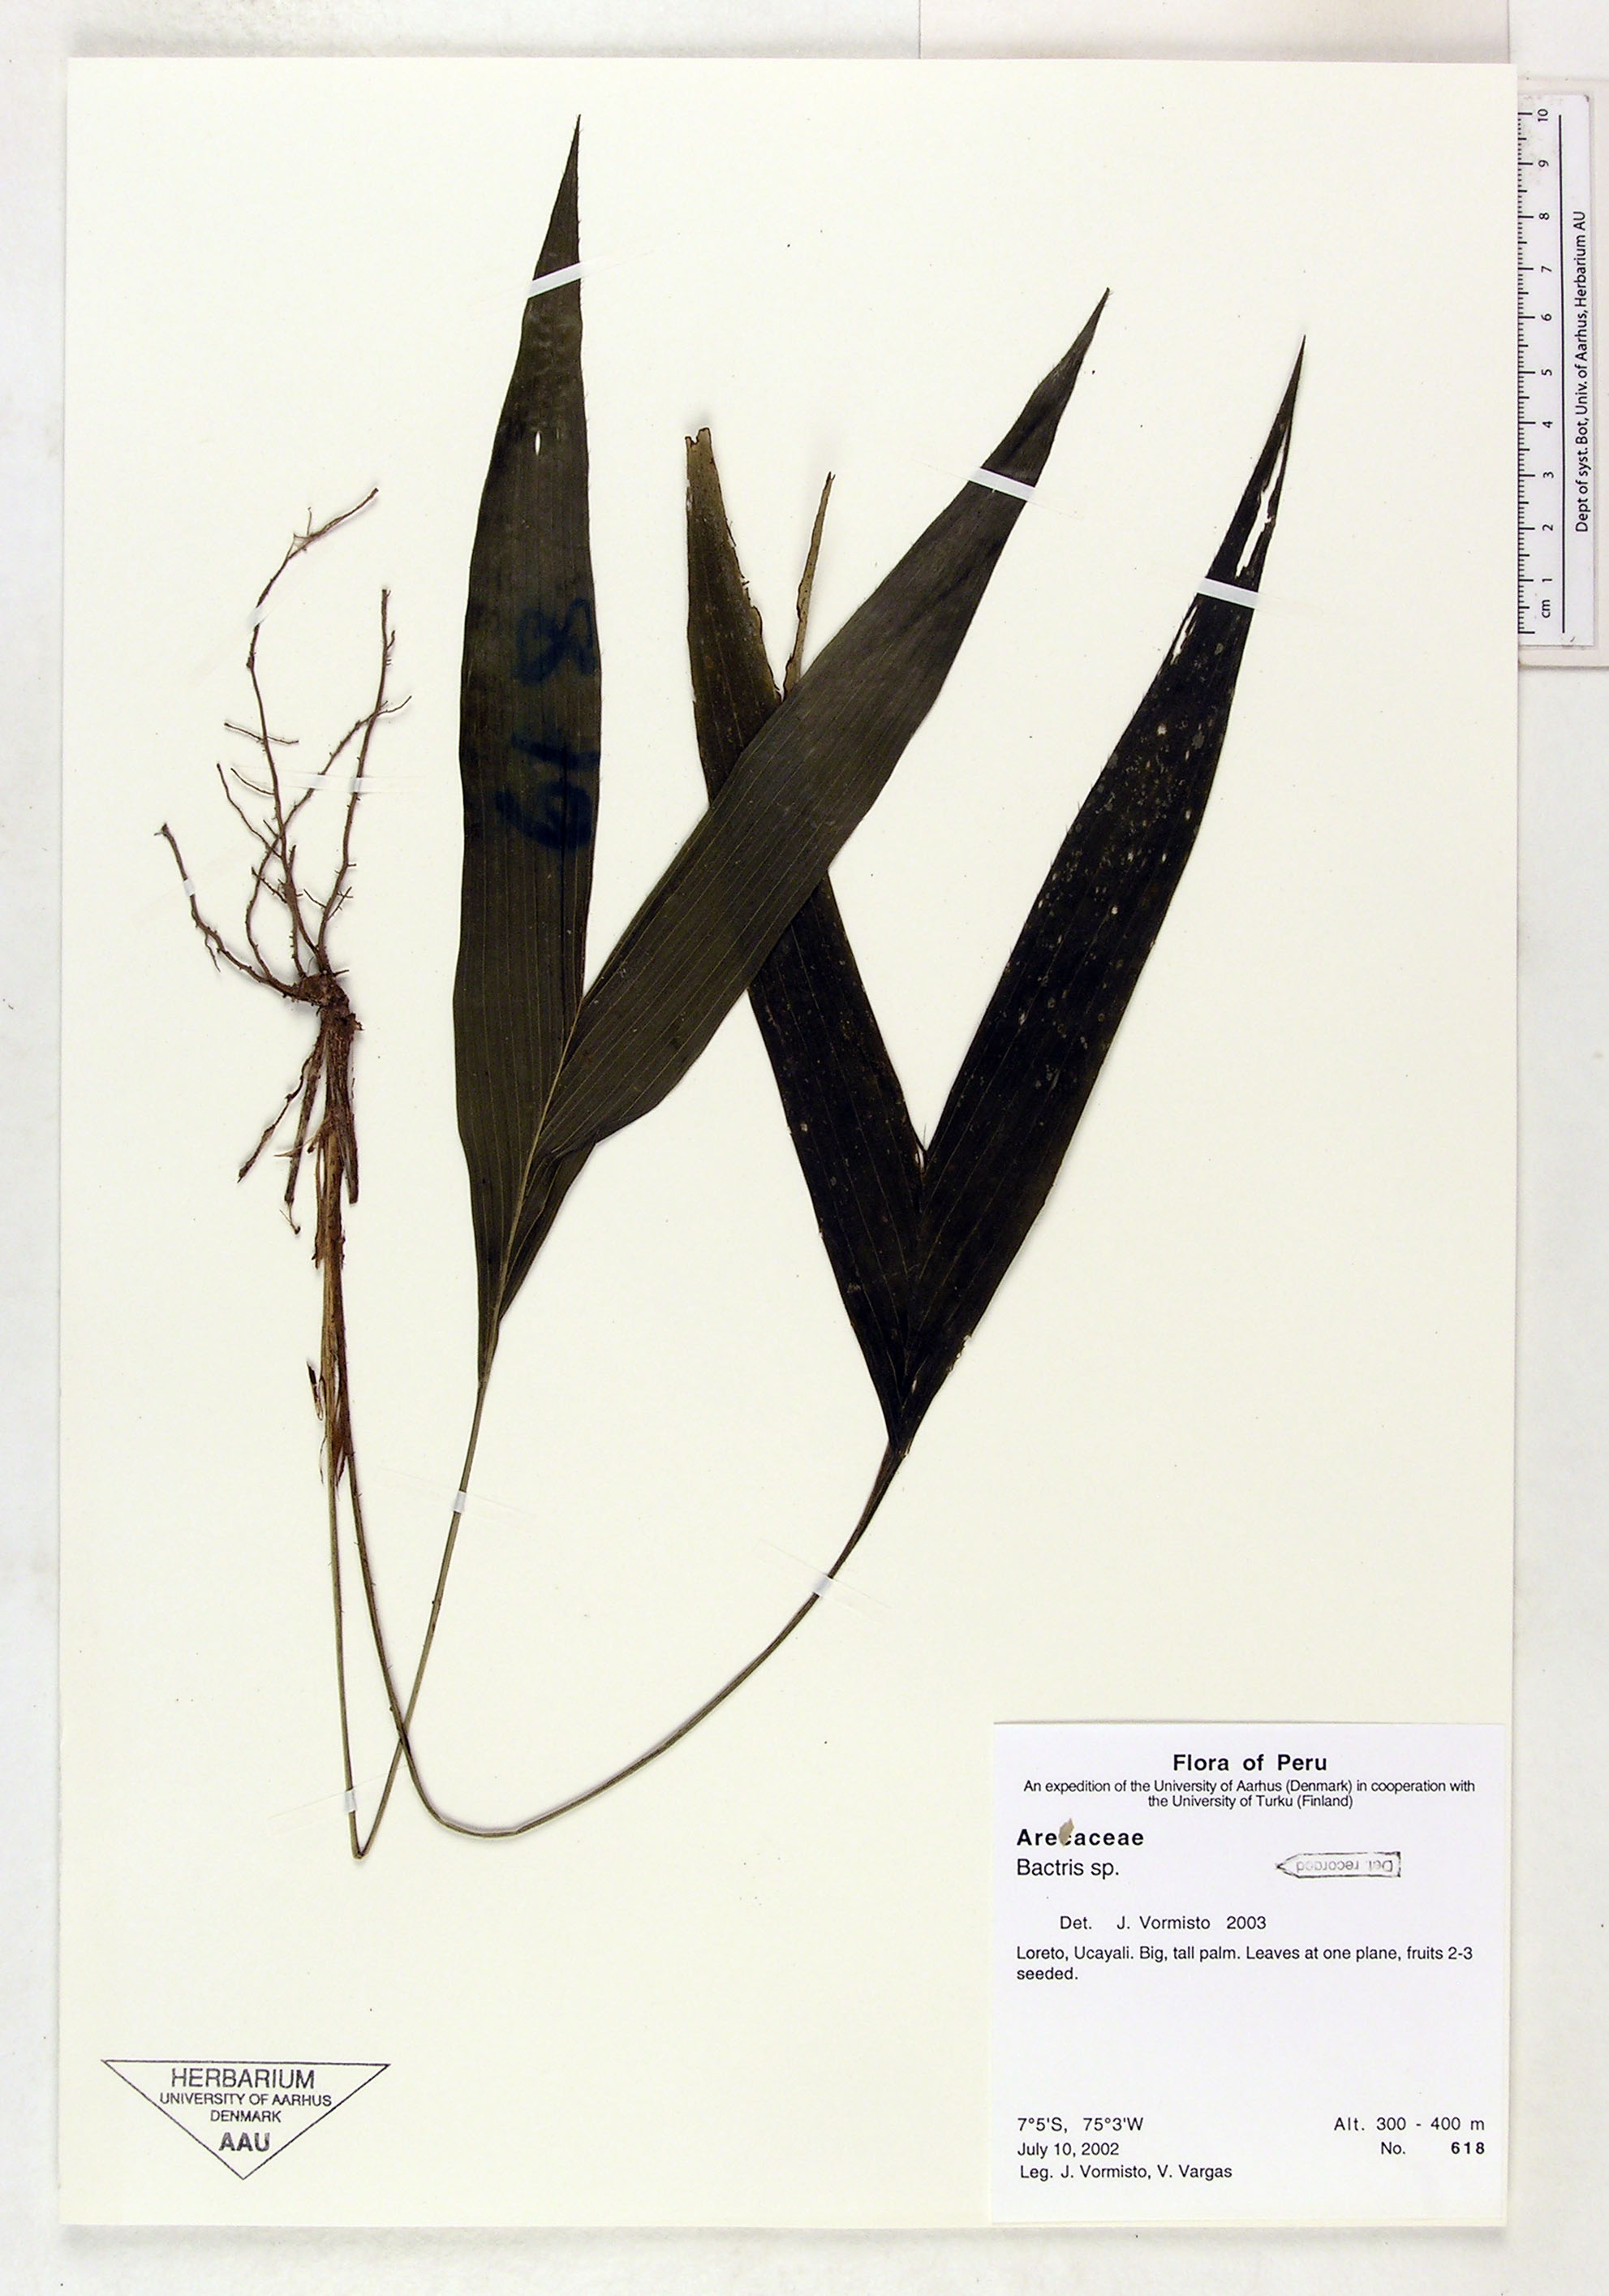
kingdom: Plantae
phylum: Tracheophyta
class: Liliopsida
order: Arecales
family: Arecaceae
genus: Bactris
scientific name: Bactris
